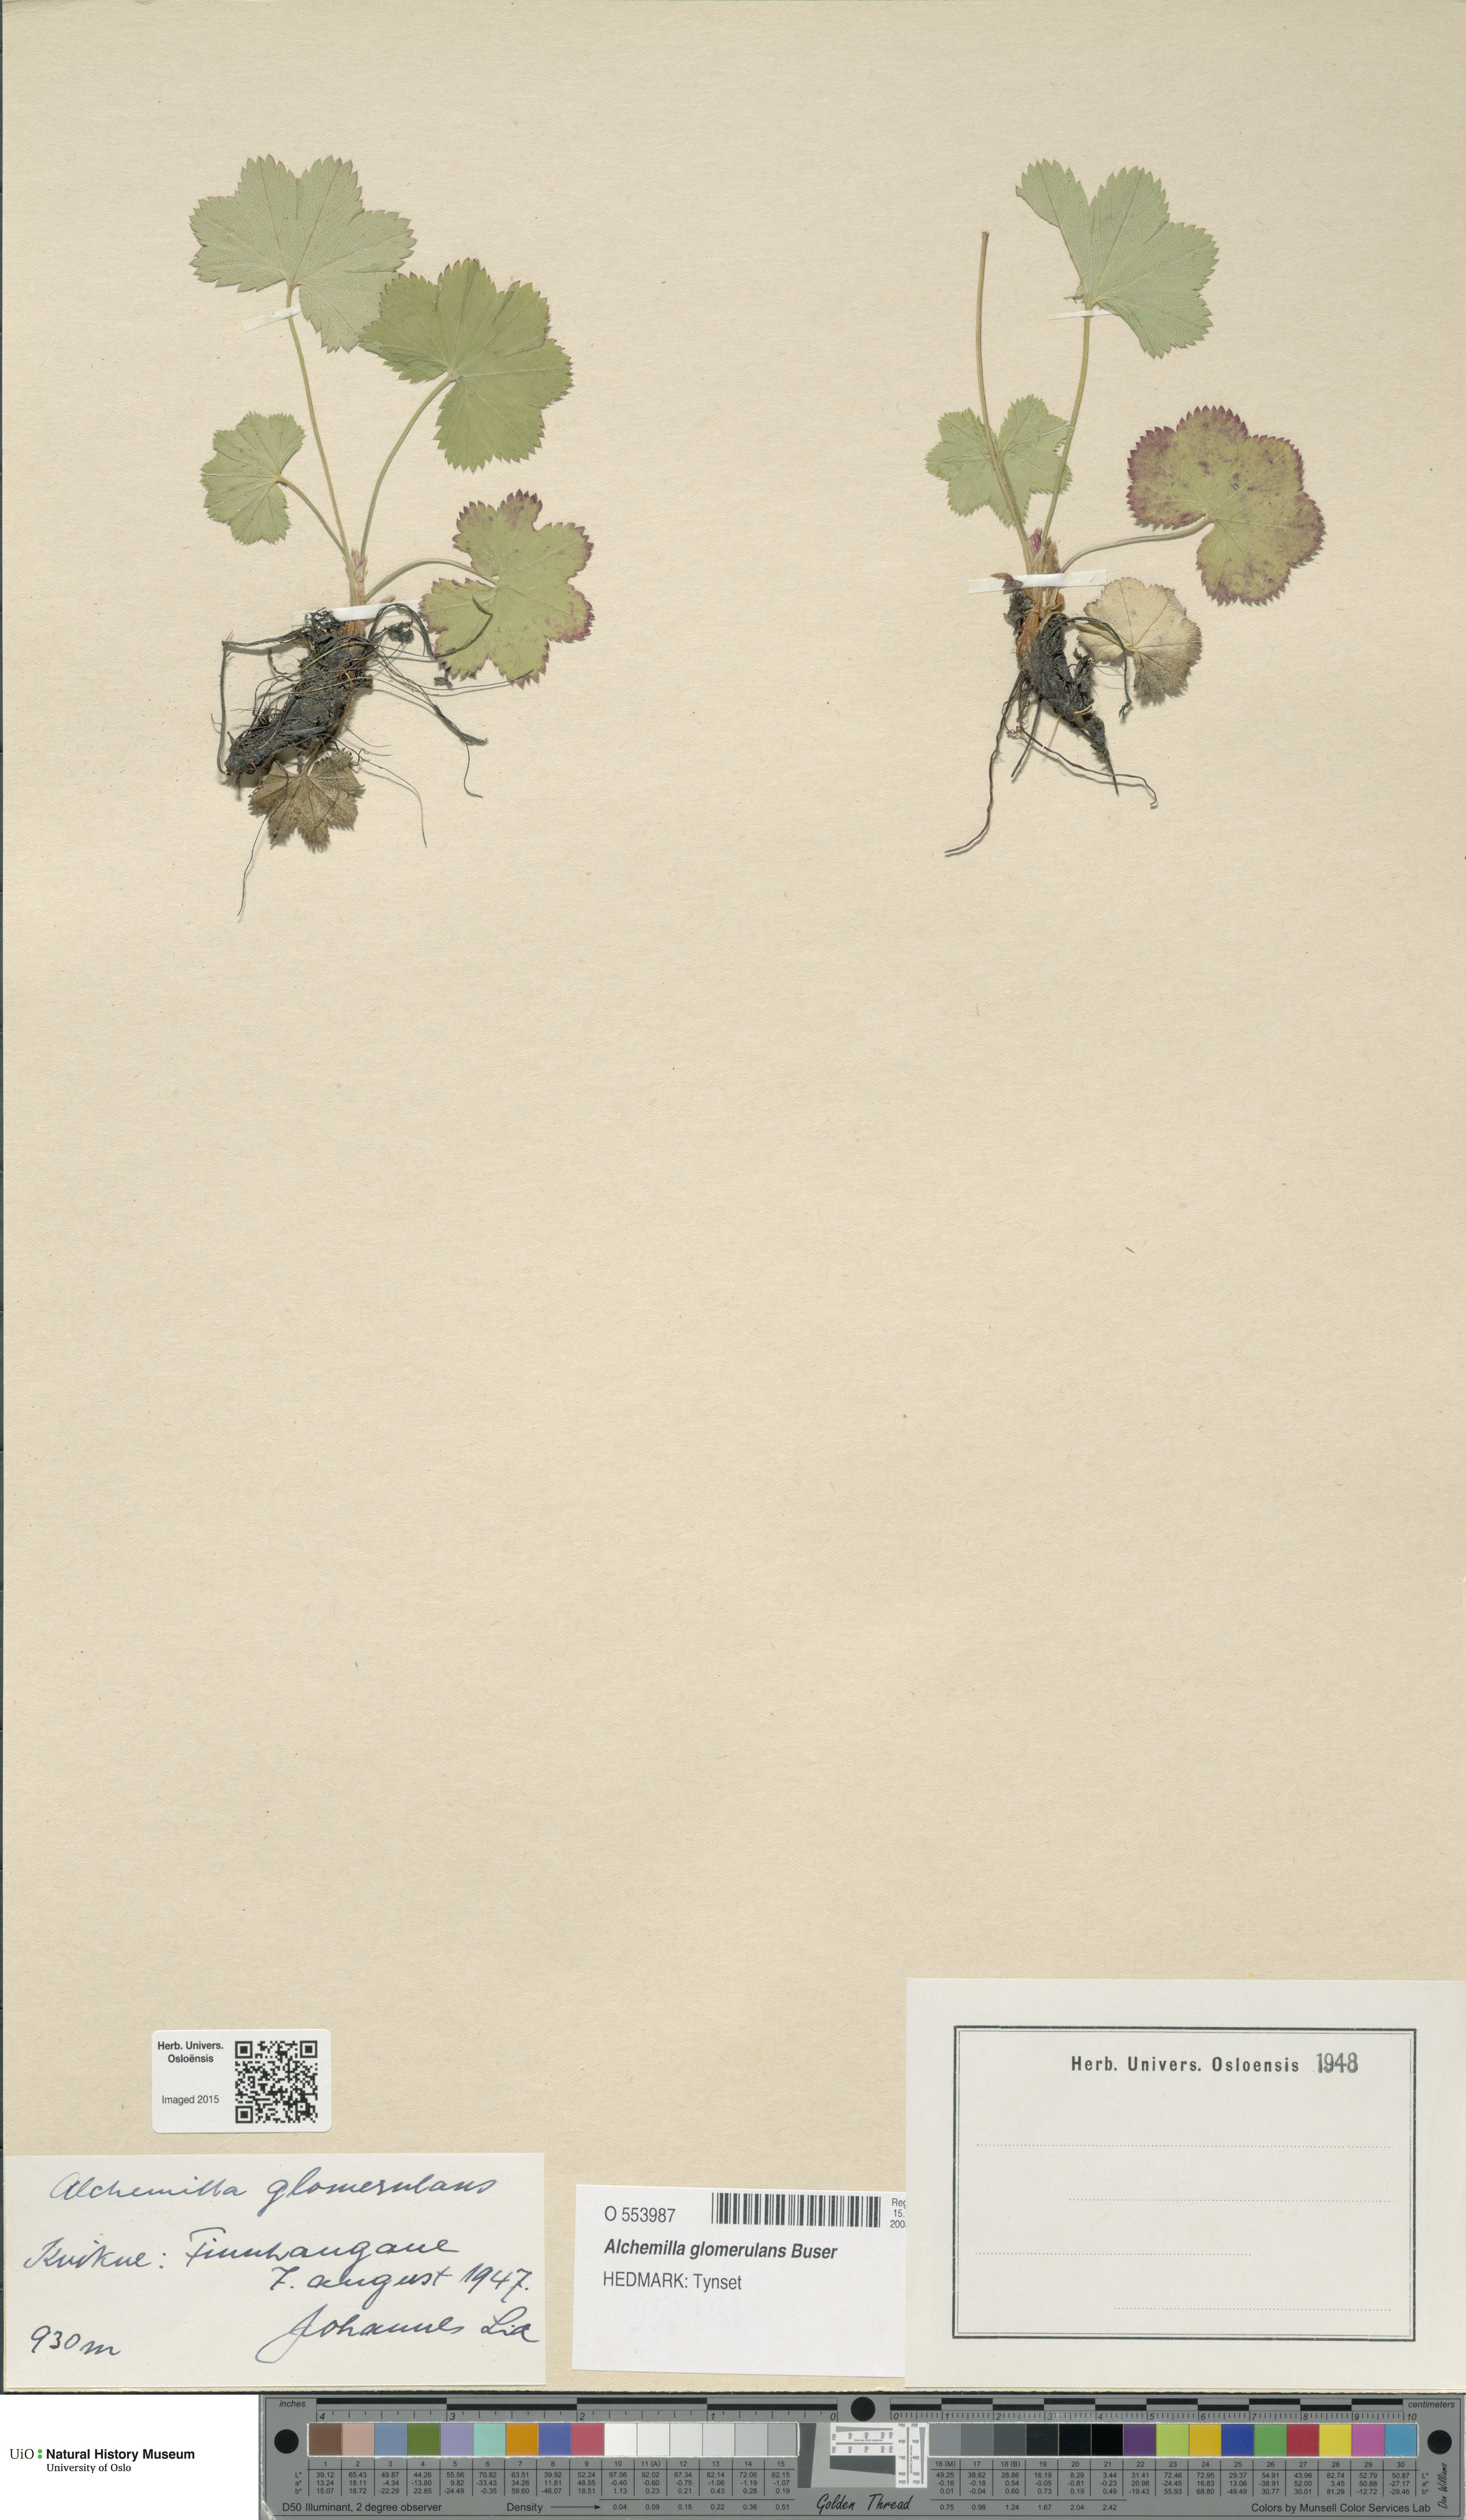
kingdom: Plantae
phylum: Tracheophyta
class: Magnoliopsida
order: Rosales
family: Rosaceae
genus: Alchemilla
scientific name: Alchemilla glomerulans
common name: Clustered lady's mantle
